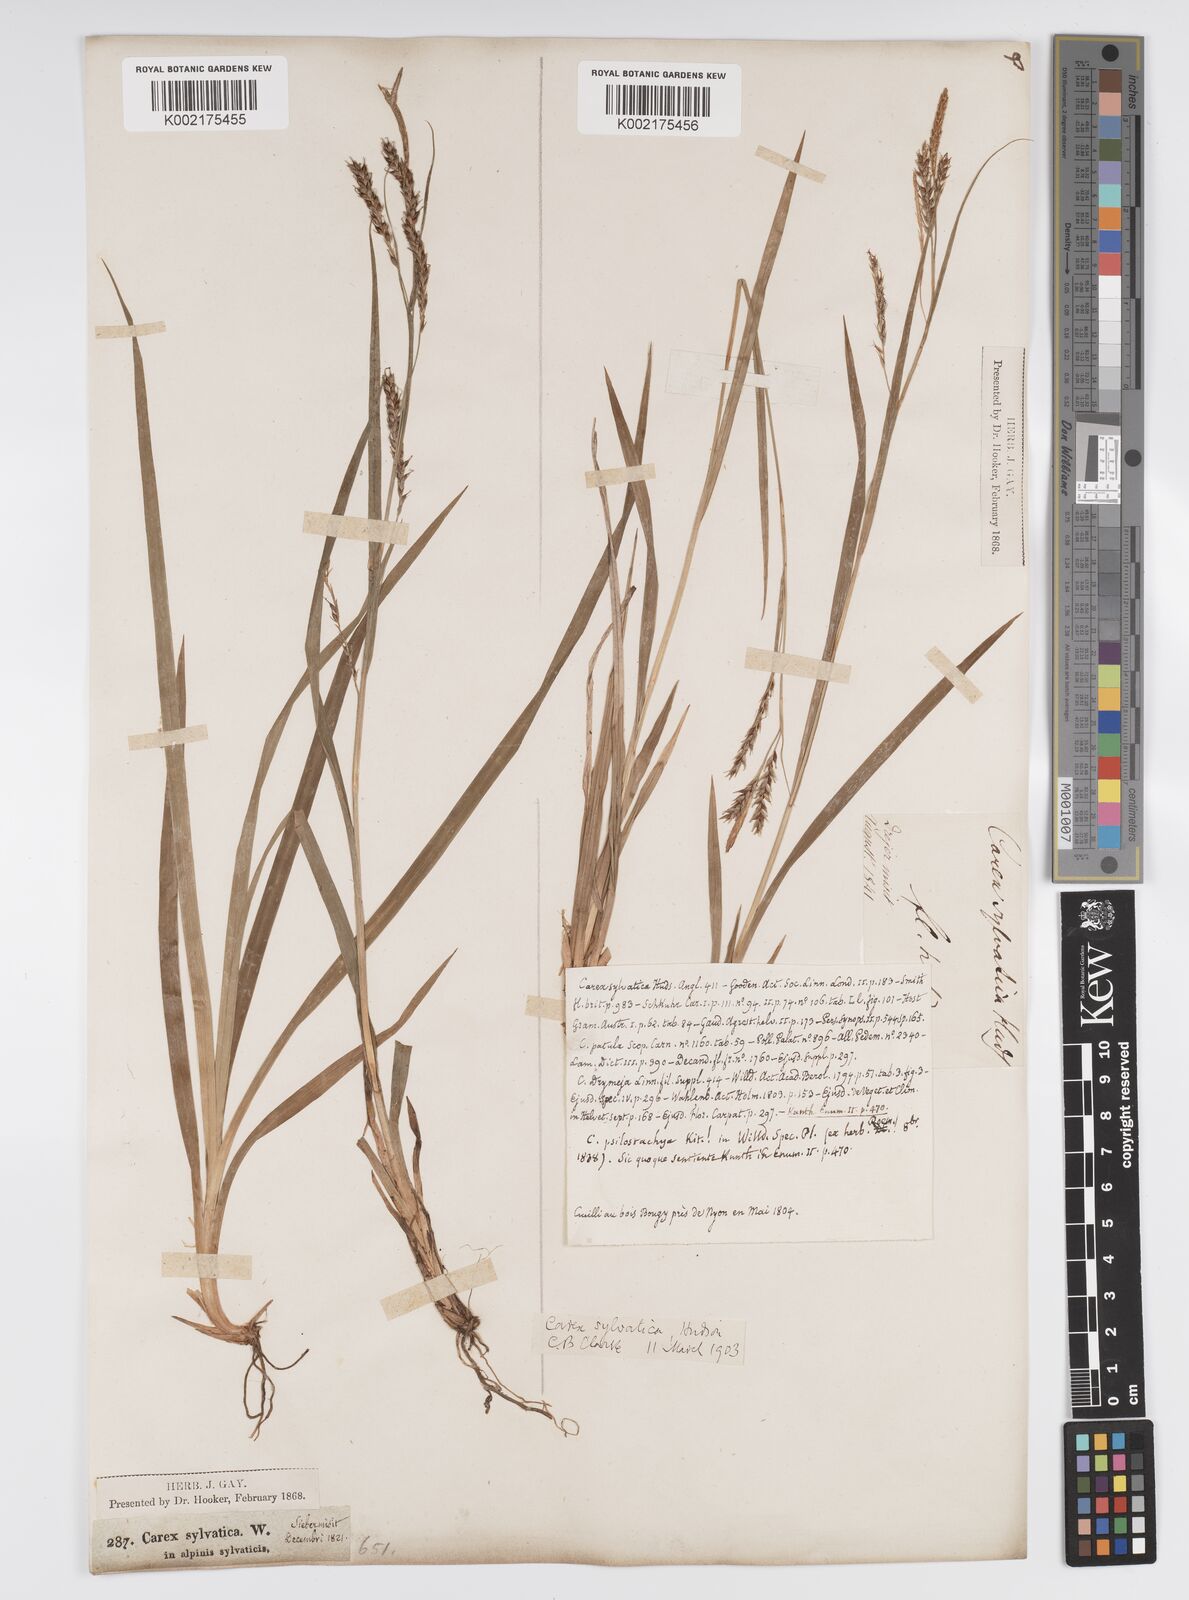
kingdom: Plantae
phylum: Tracheophyta
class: Liliopsida
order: Poales
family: Cyperaceae
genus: Carex
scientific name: Carex sylvatica
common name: Wood-sedge
